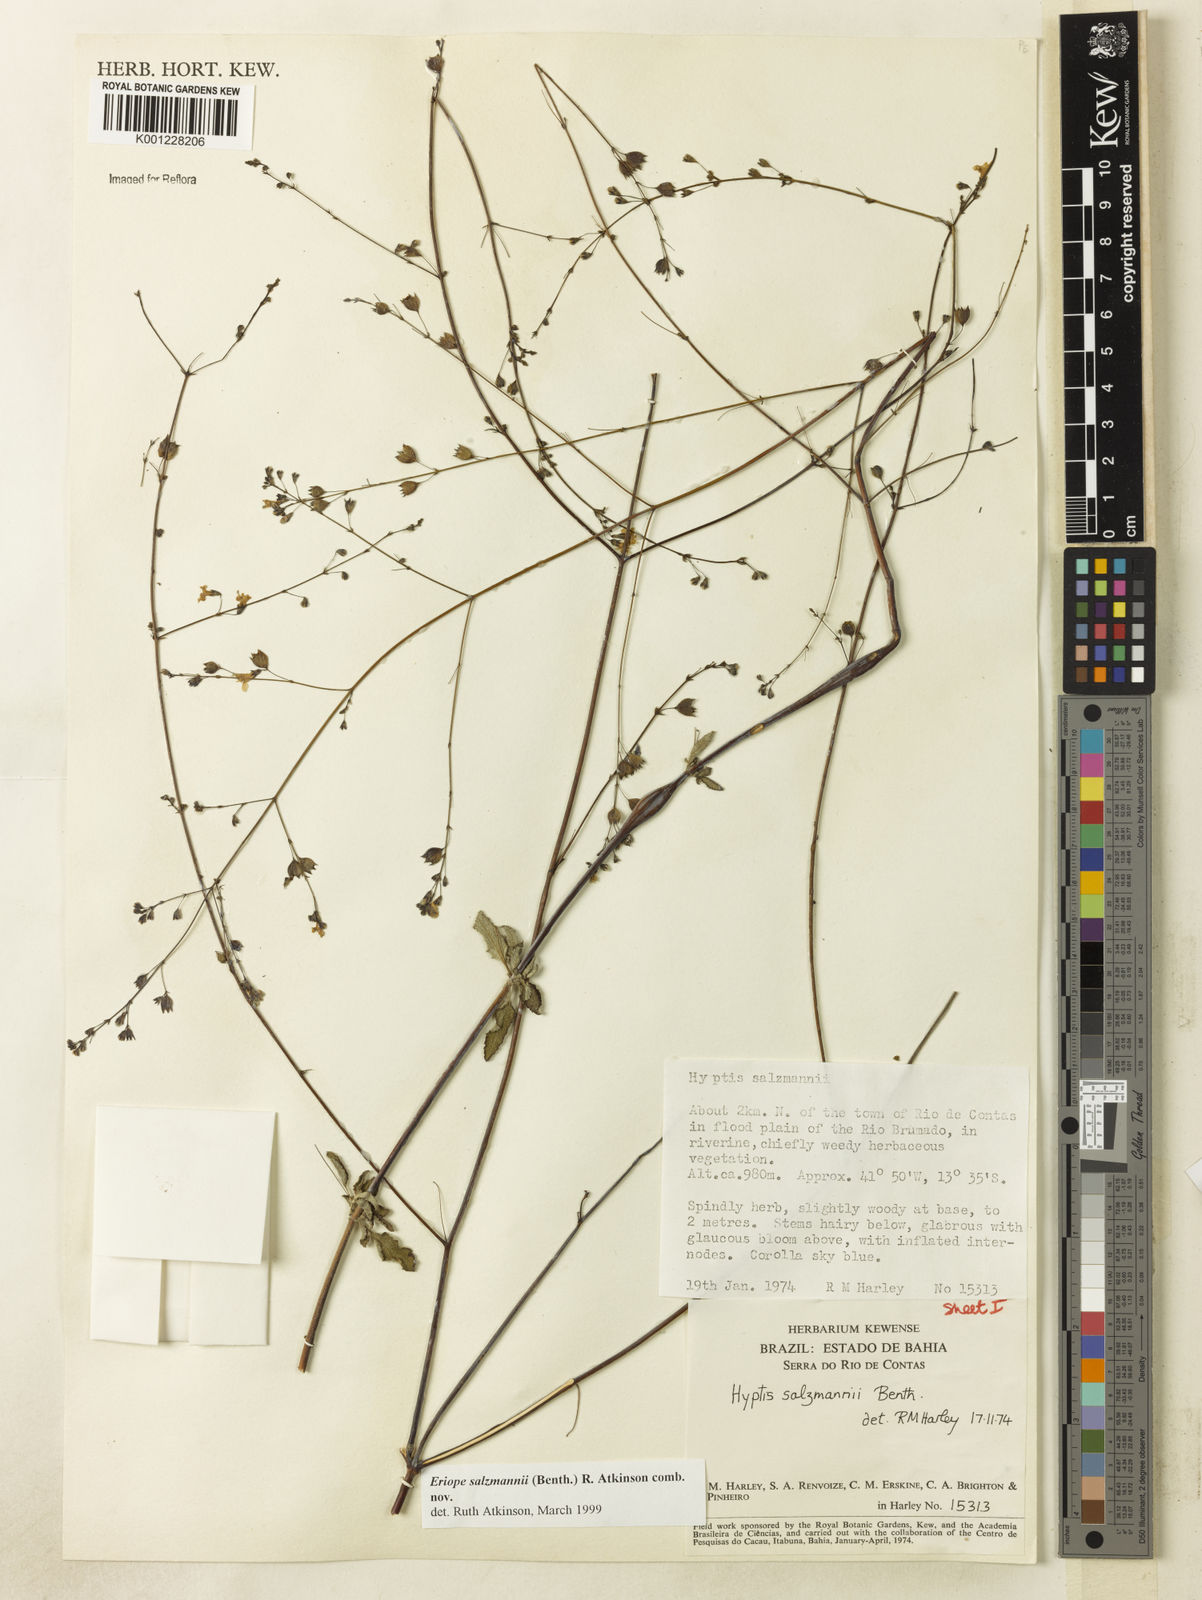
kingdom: Plantae
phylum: Tracheophyta
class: Magnoliopsida
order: Lamiales
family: Lamiaceae
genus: Hypenia
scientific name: Hypenia salzmannii
